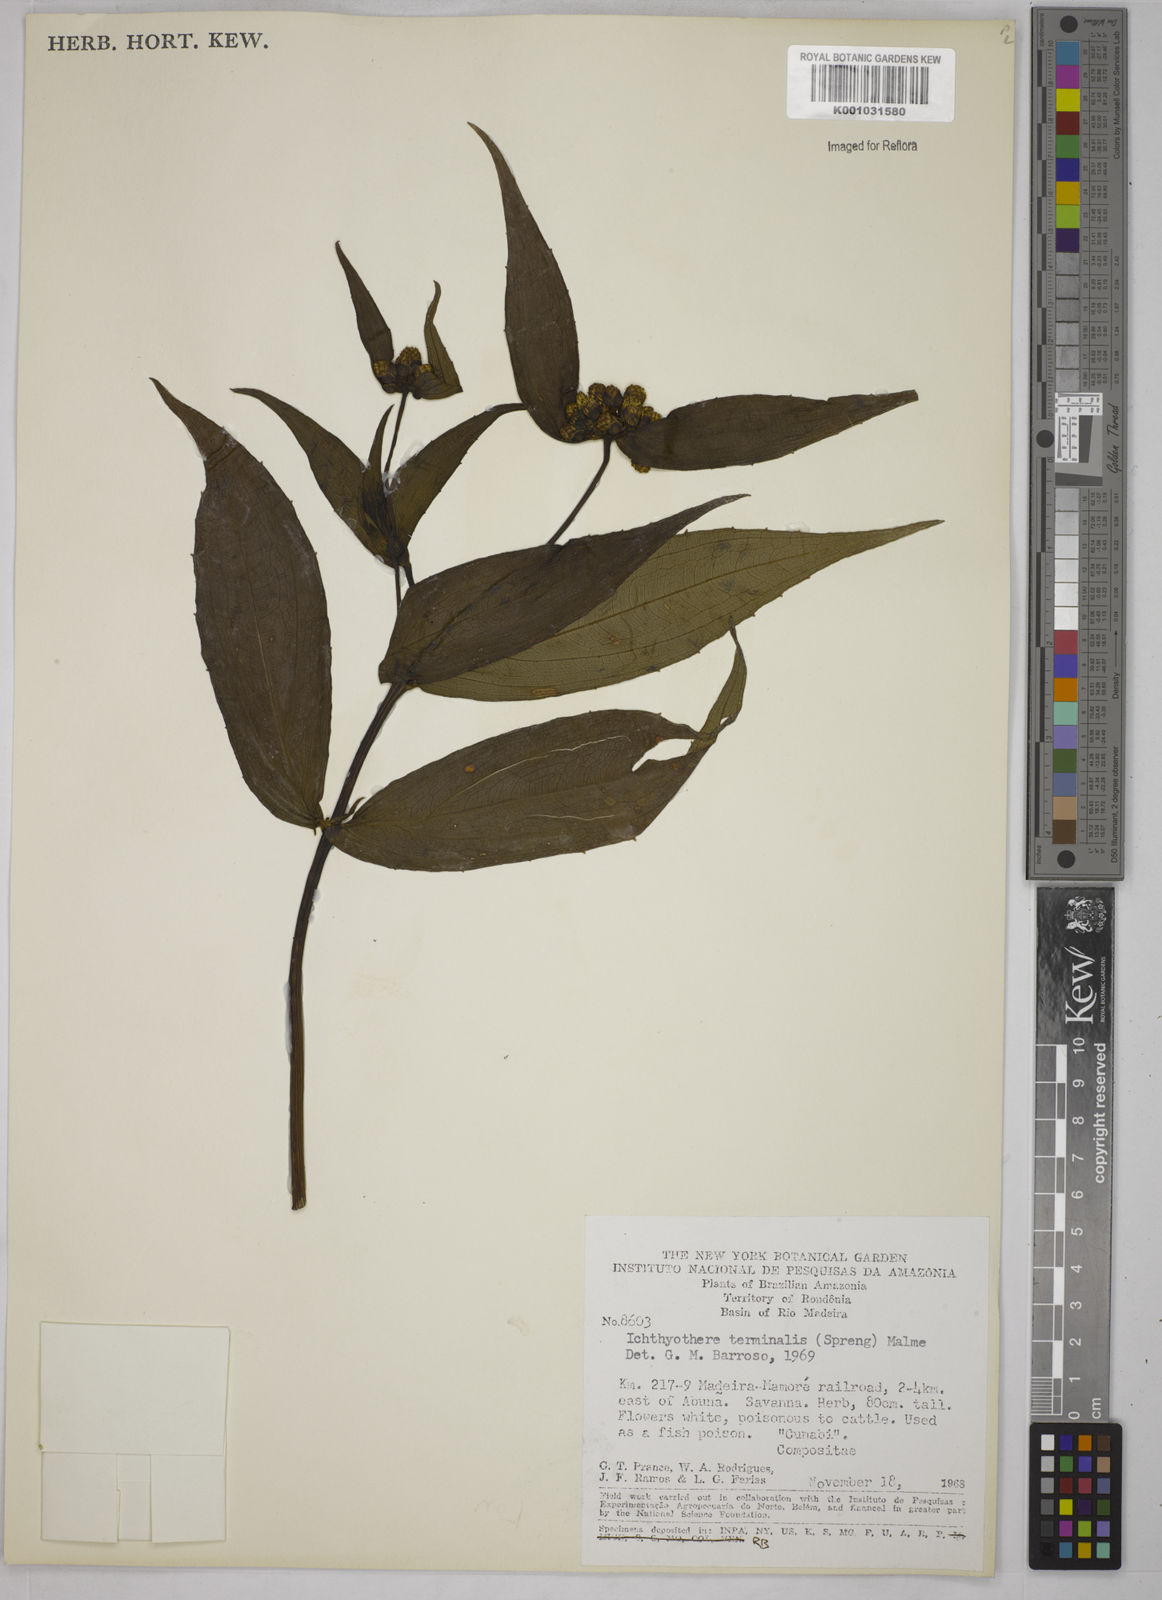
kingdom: Plantae
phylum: Tracheophyta
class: Magnoliopsida
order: Asterales
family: Asteraceae
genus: Ichthyothere
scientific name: Ichthyothere cunabi
